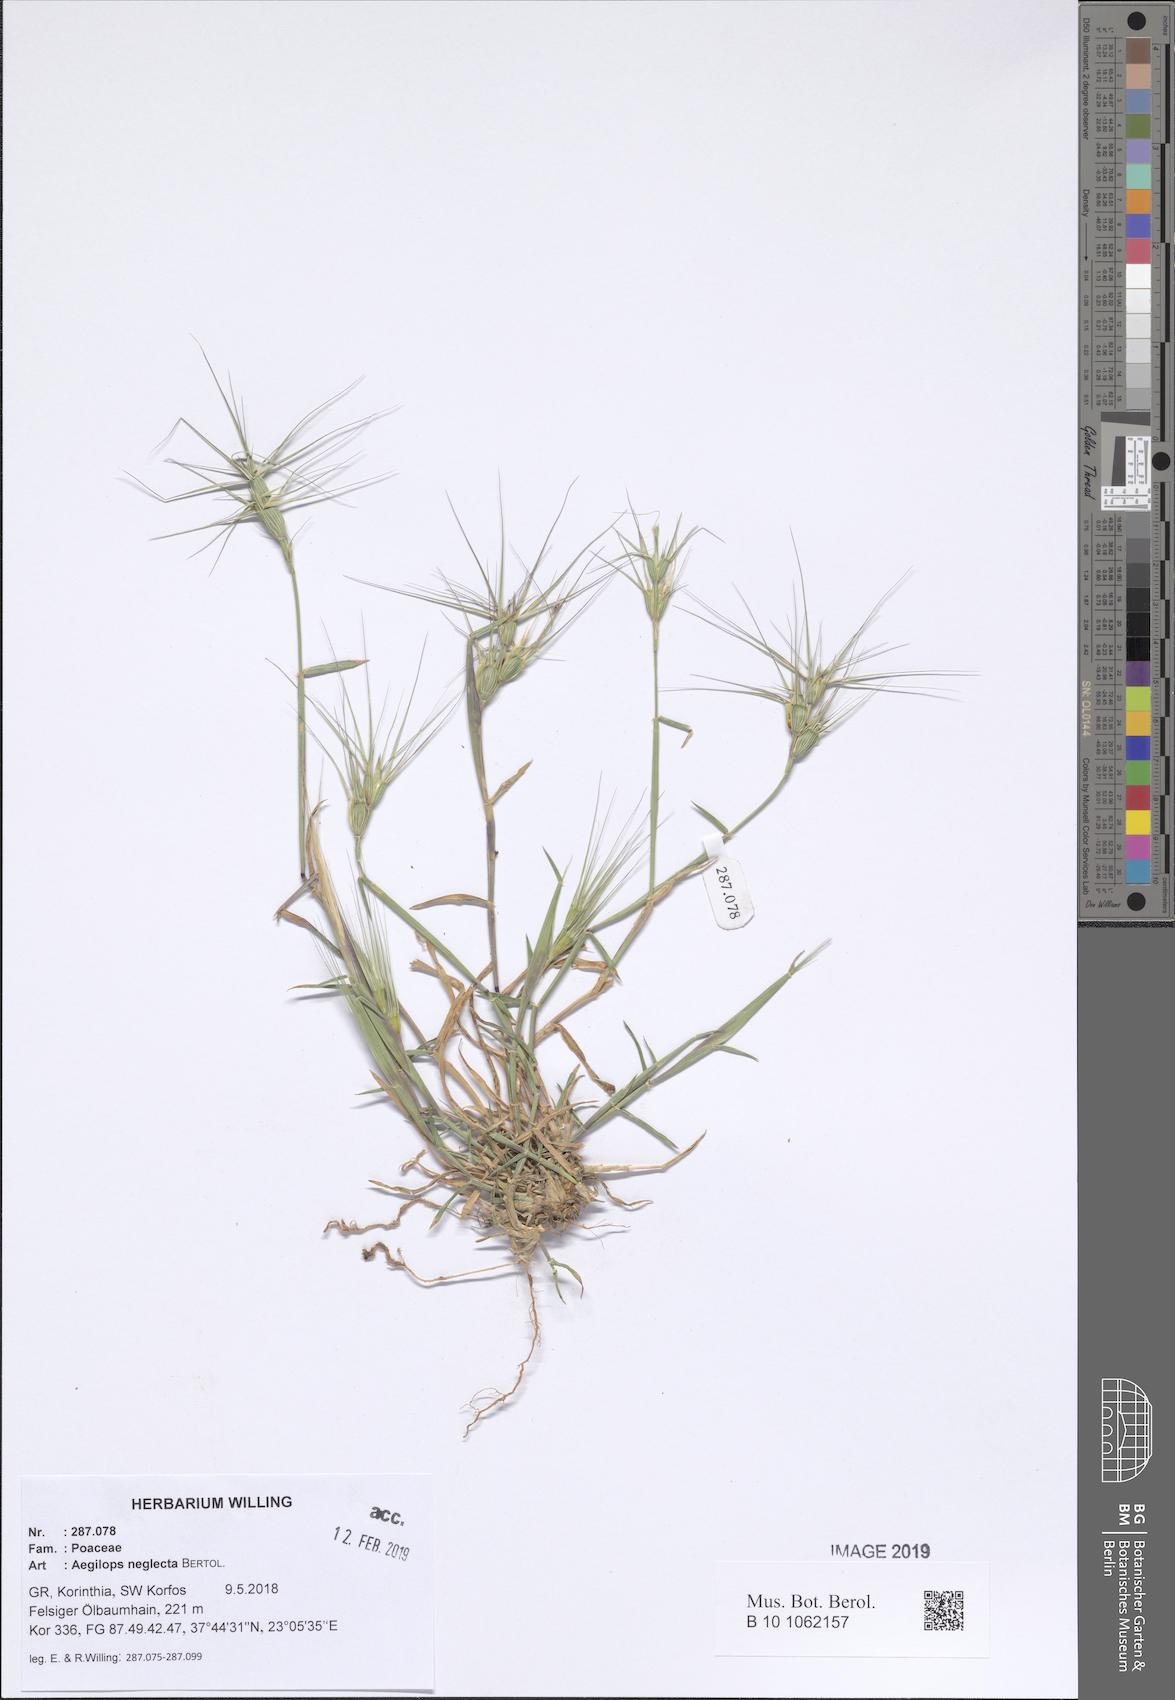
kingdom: Plantae
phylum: Tracheophyta
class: Liliopsida
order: Poales
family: Poaceae
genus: Aegilops
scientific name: Aegilops neglecta
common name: Three-awn goat grass
